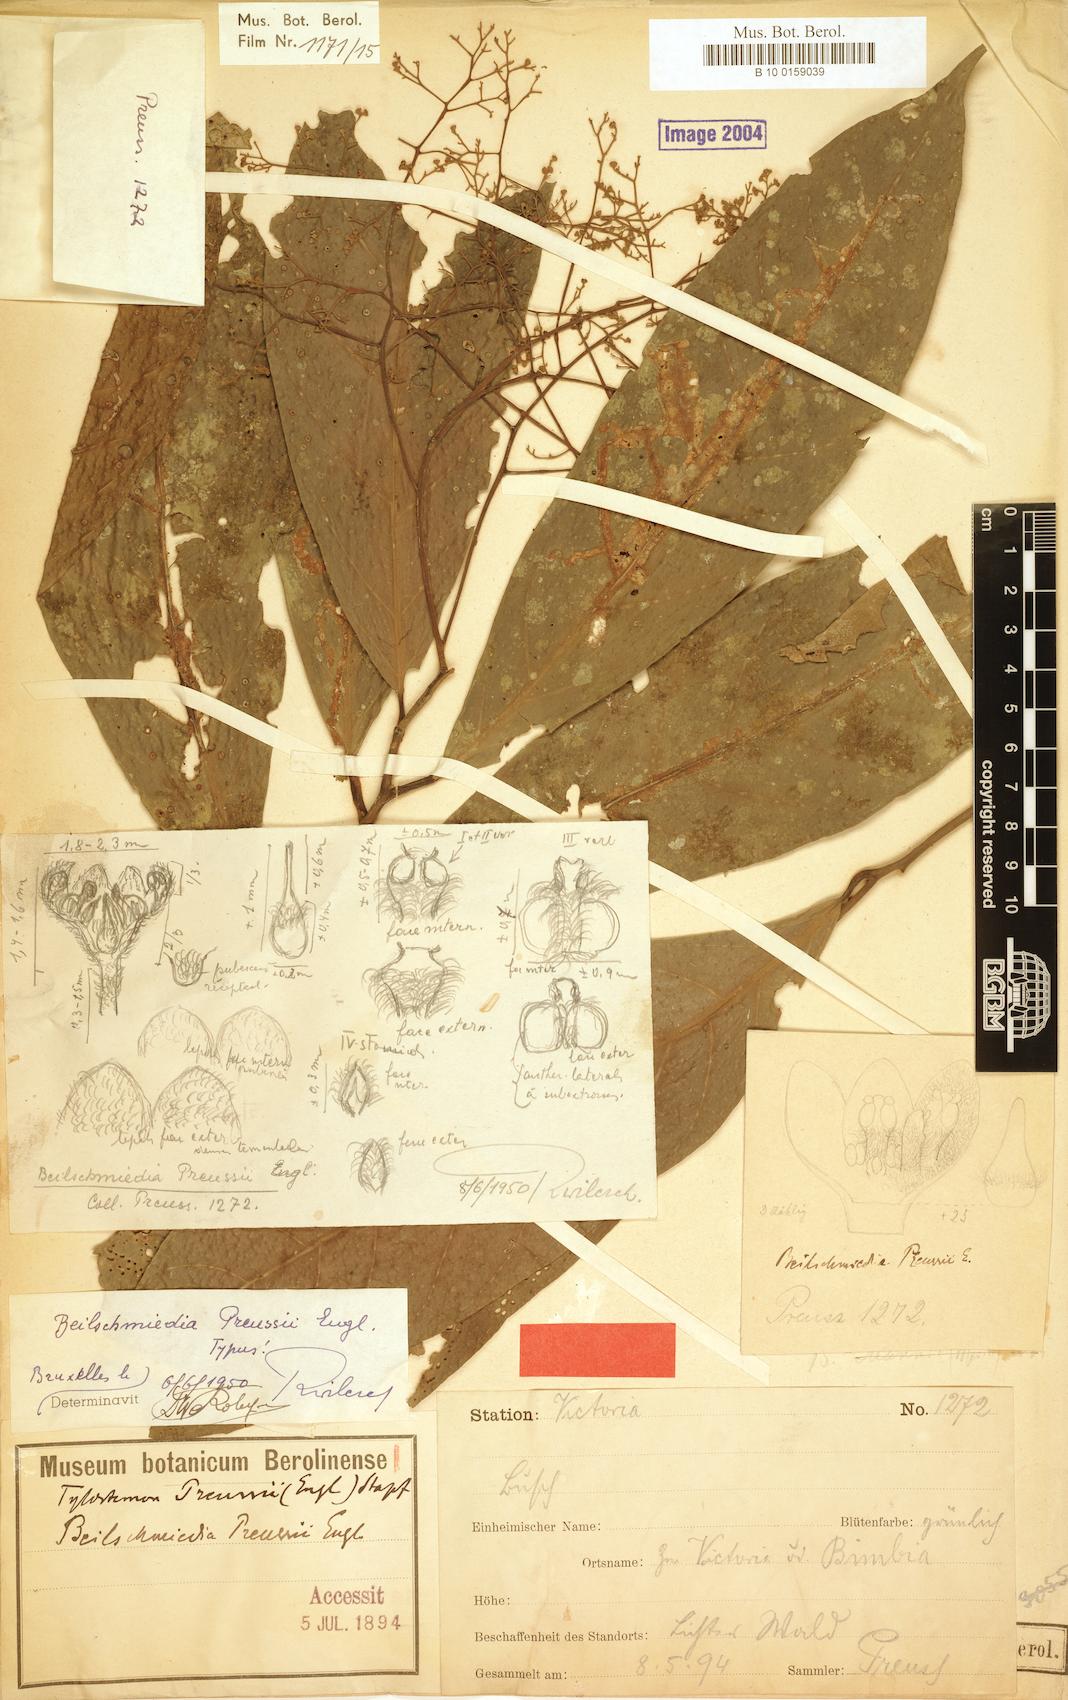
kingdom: Plantae
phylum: Tracheophyta
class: Magnoliopsida
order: Laurales
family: Lauraceae
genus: Beilschmiedia
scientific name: Beilschmiedia preussii
